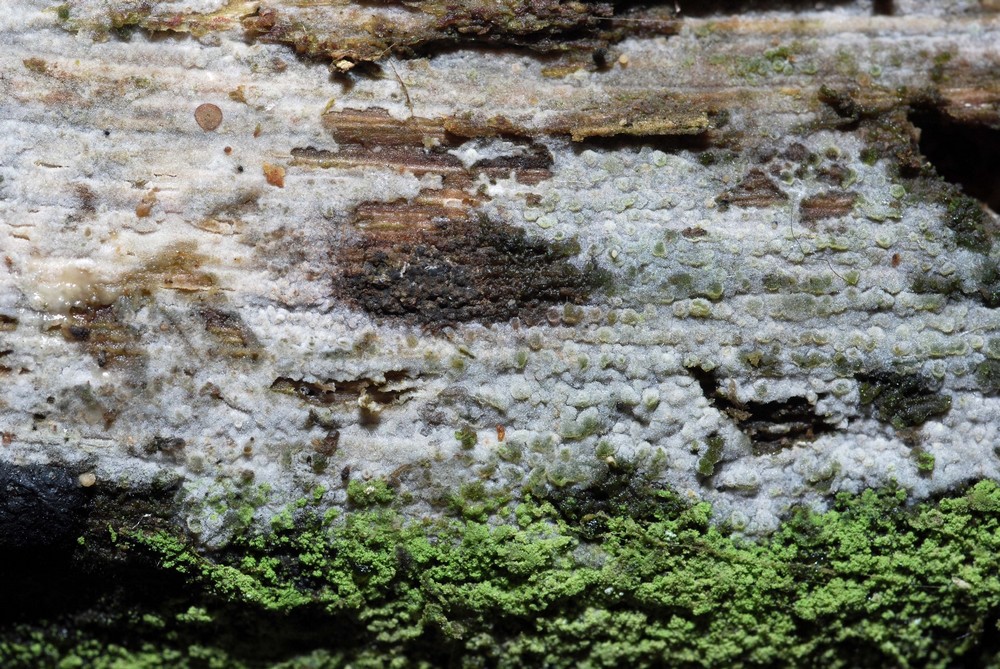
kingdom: Fungi
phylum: Basidiomycota
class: Agaricomycetes
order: Hymenochaetales
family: Rickenellaceae
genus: Peniophorella
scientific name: Peniophorella praetermissa
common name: almindelig kalkskind
